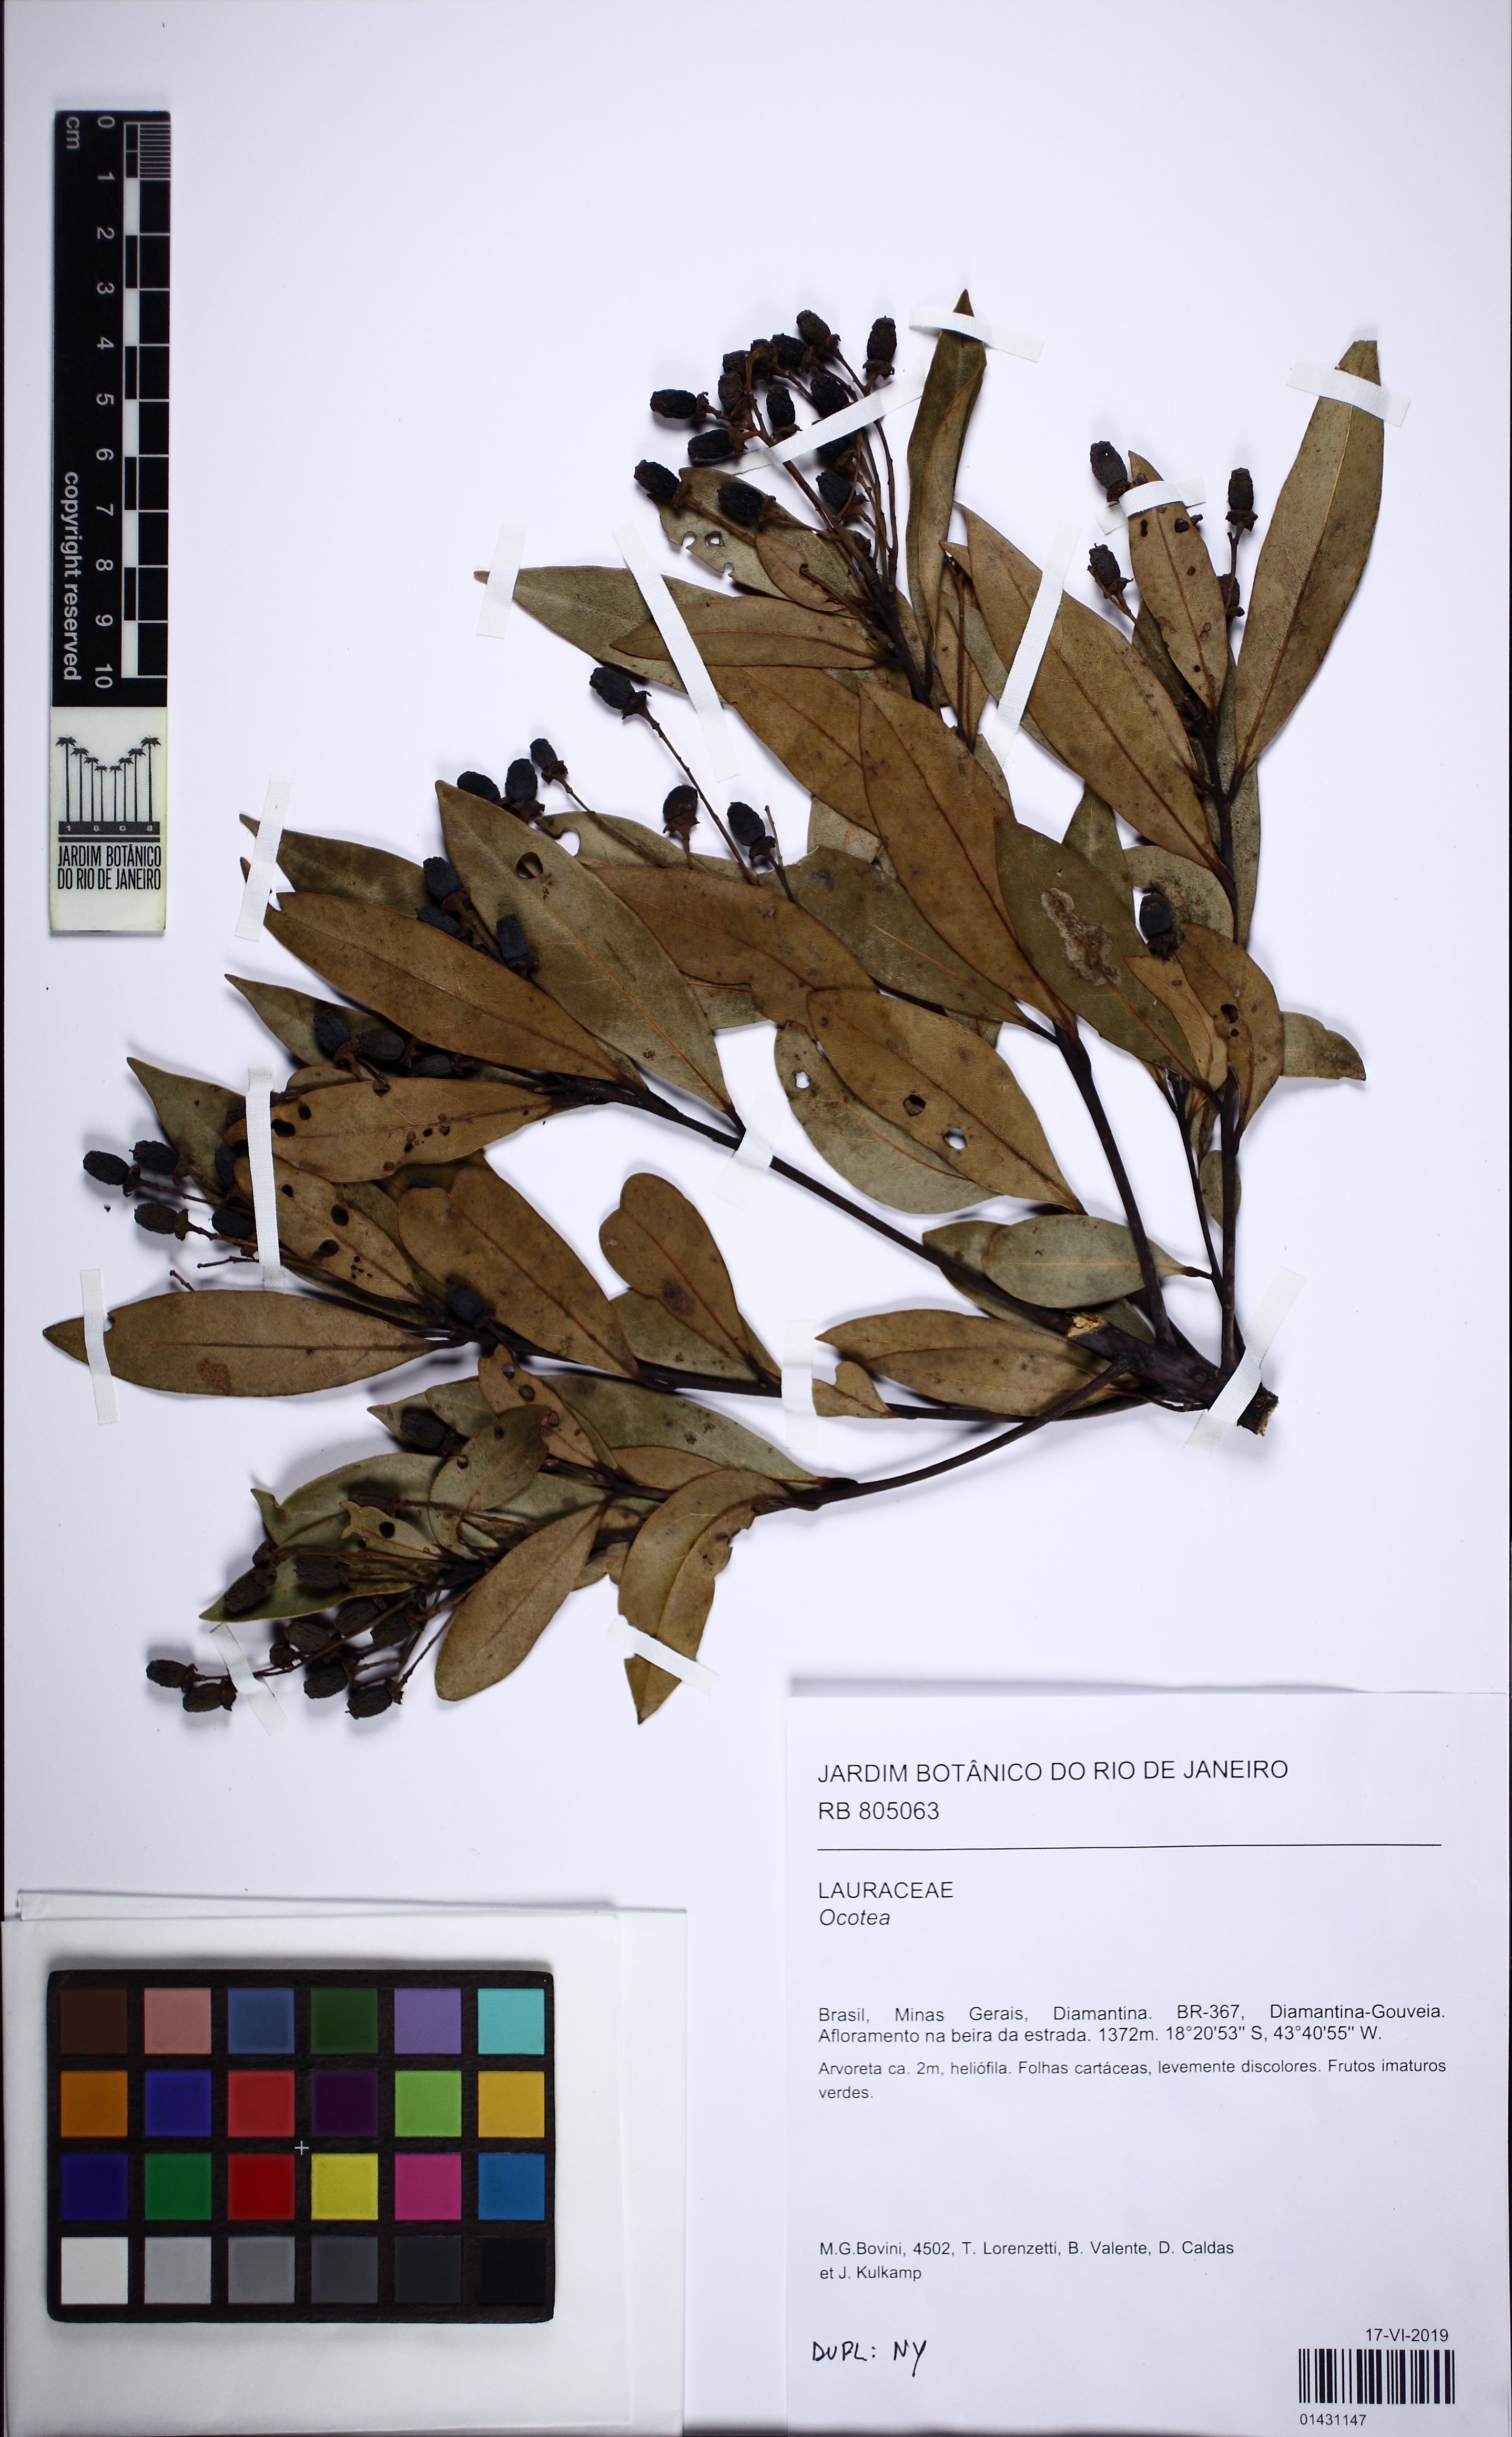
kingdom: Plantae
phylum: Tracheophyta
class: Magnoliopsida
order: Laurales
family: Lauraceae
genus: Ocotea
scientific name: Ocotea lancifolia
